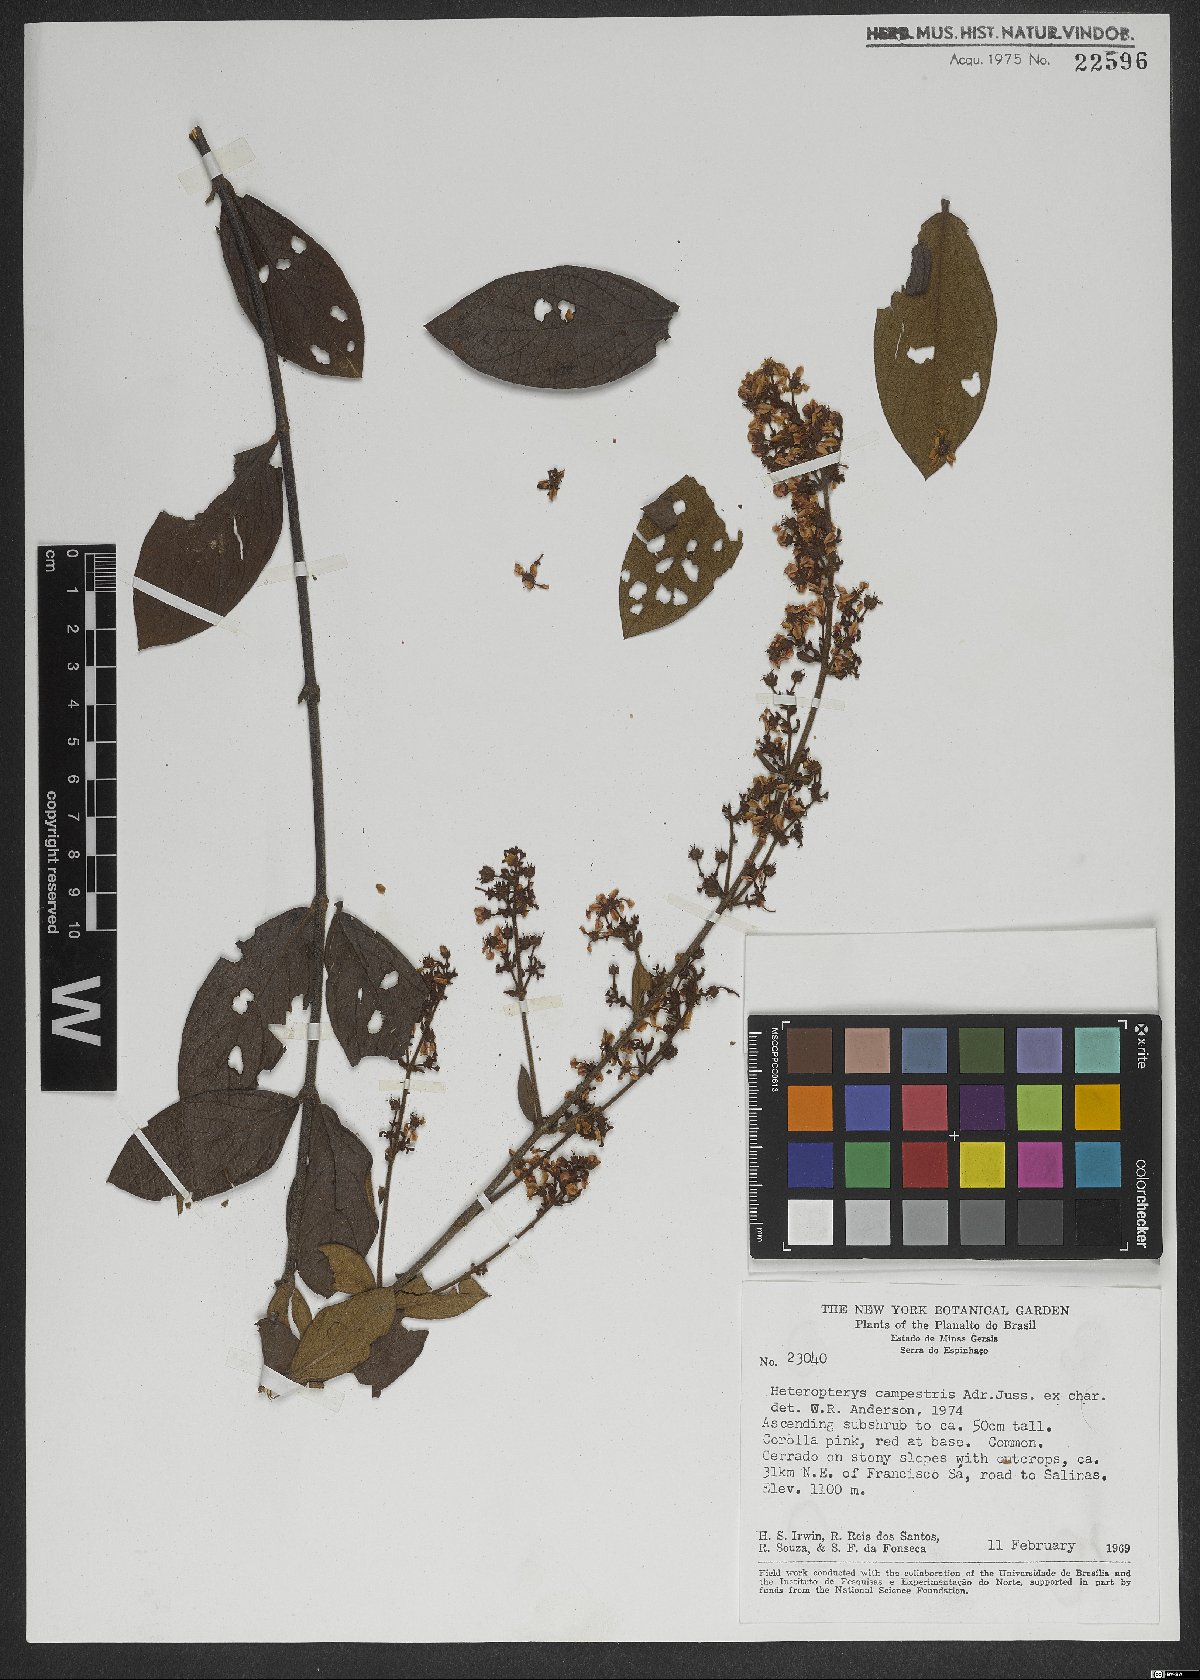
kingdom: Plantae
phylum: Tracheophyta
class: Magnoliopsida
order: Malpighiales
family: Malpighiaceae
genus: Heteropterys
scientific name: Heteropterys campestris
